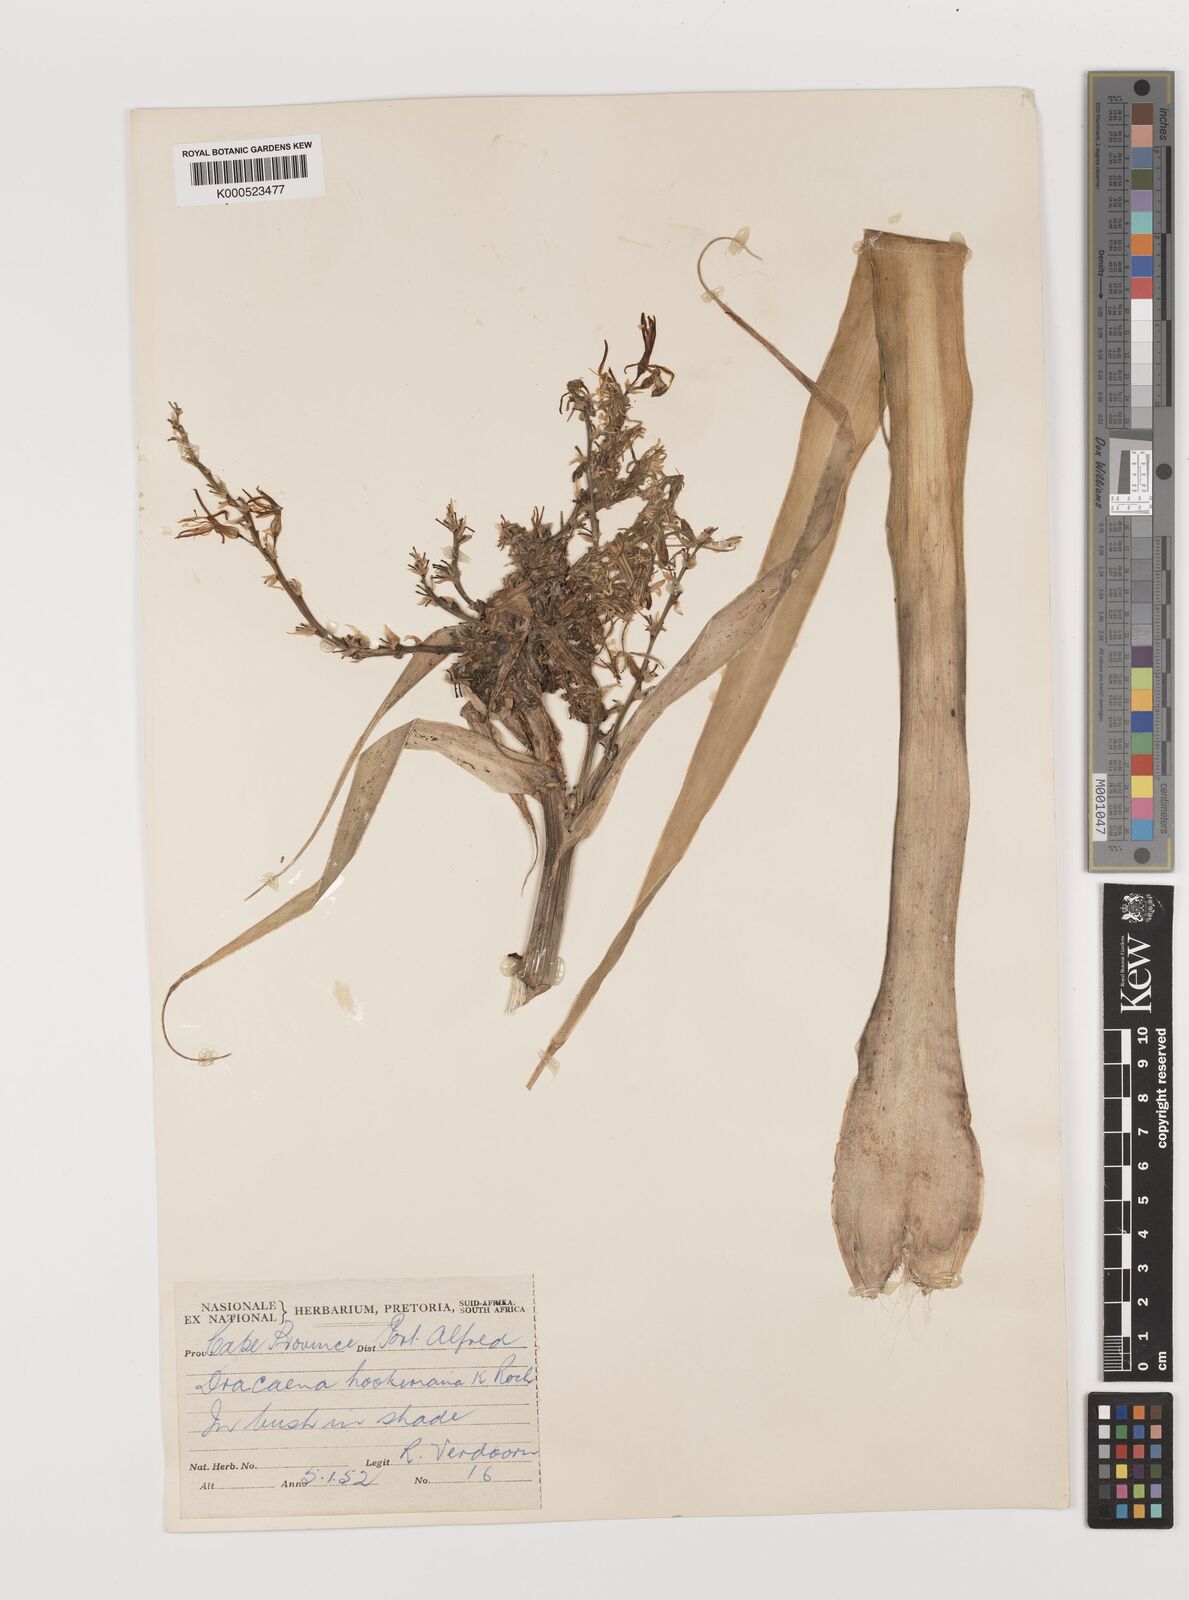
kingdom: Plantae
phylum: Tracheophyta
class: Liliopsida
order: Asparagales
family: Asparagaceae
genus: Dracaena
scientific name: Dracaena aletriformis
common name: Large-leaved dragon tree
